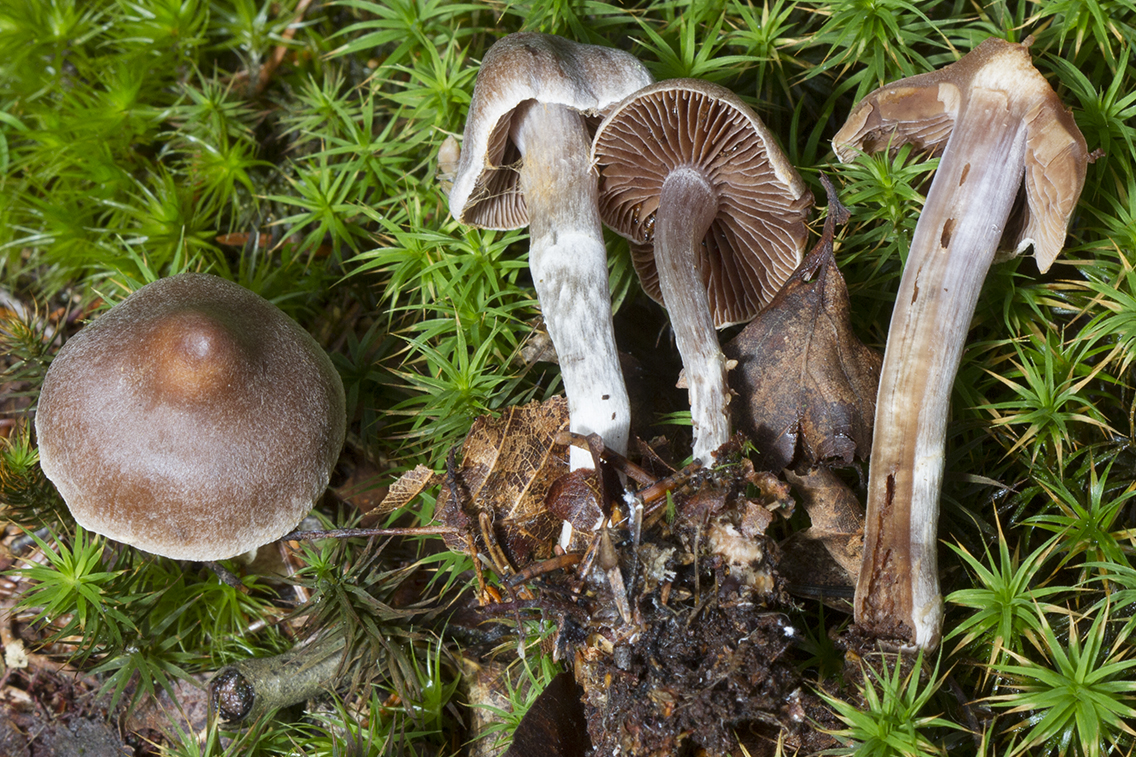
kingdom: Fungi
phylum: Basidiomycota
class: Agaricomycetes
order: Agaricales
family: Cortinariaceae
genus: Cortinarius
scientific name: Cortinarius nigrocuspidatus
